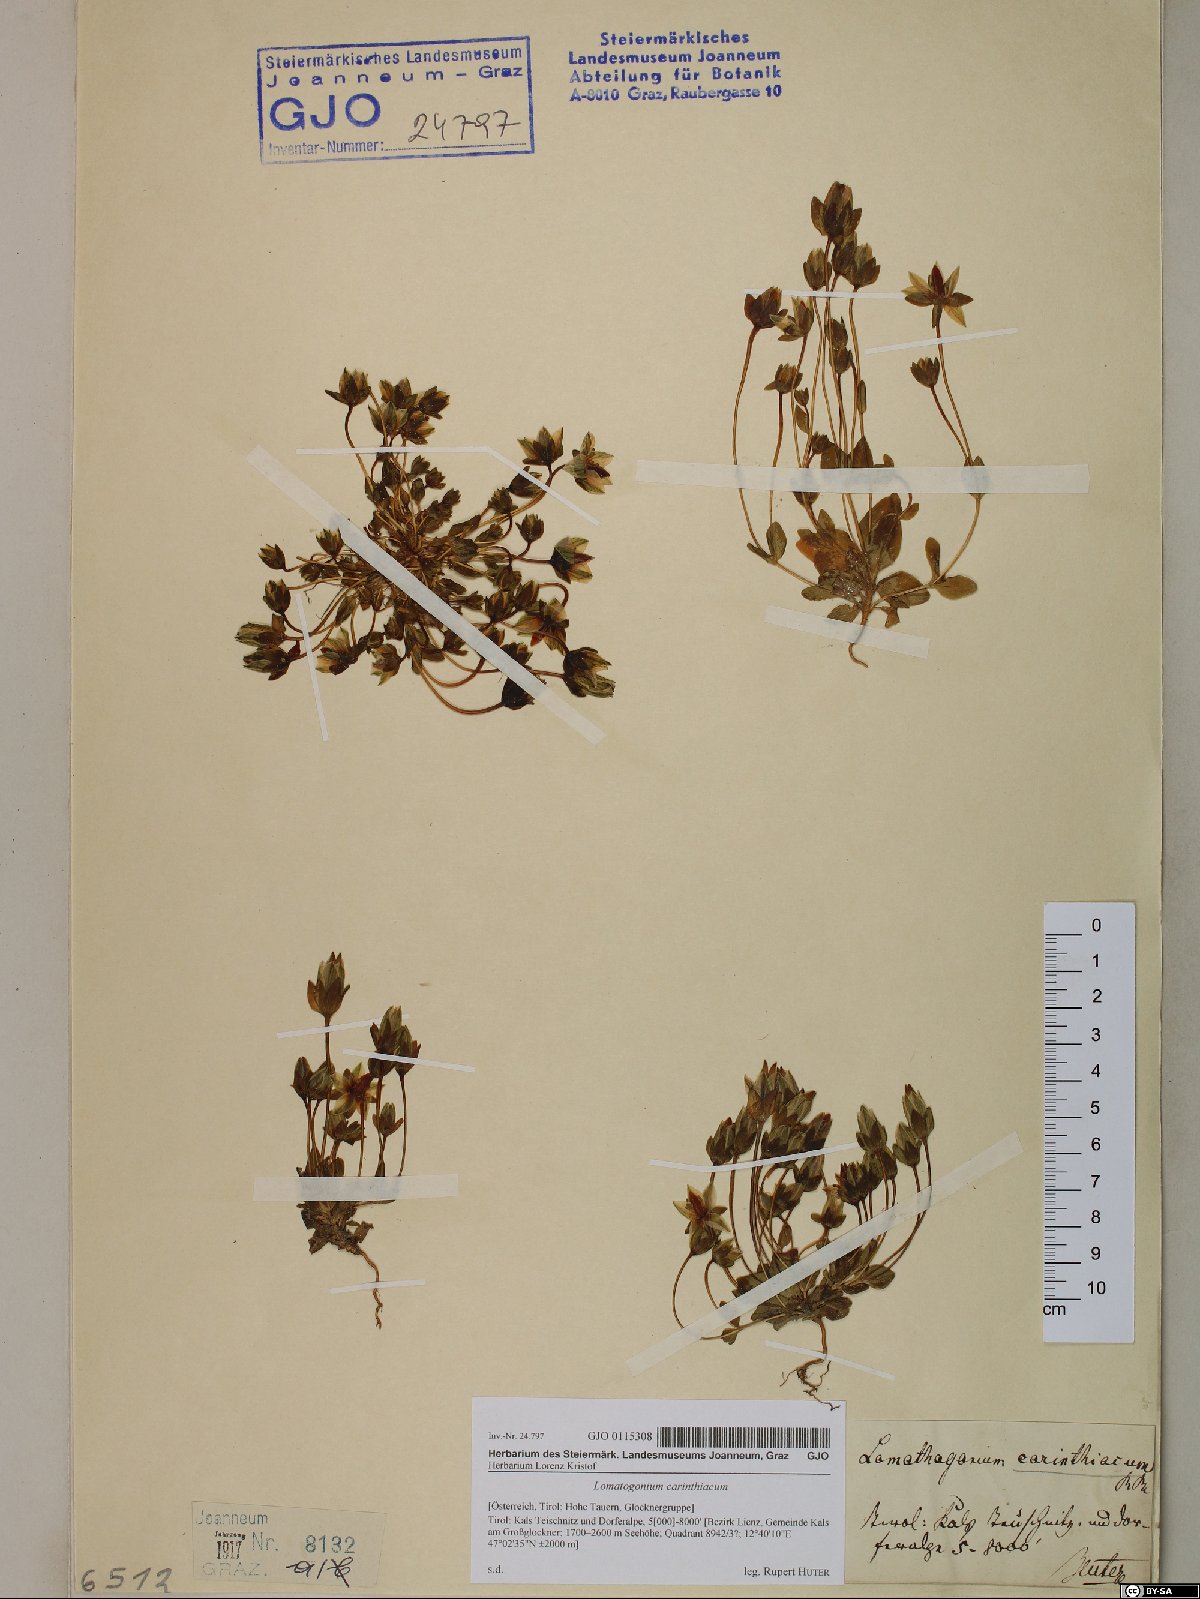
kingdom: Plantae
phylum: Tracheophyta
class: Magnoliopsida
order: Gentianales
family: Gentianaceae
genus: Lomatogonium
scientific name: Lomatogonium carinthiacum
